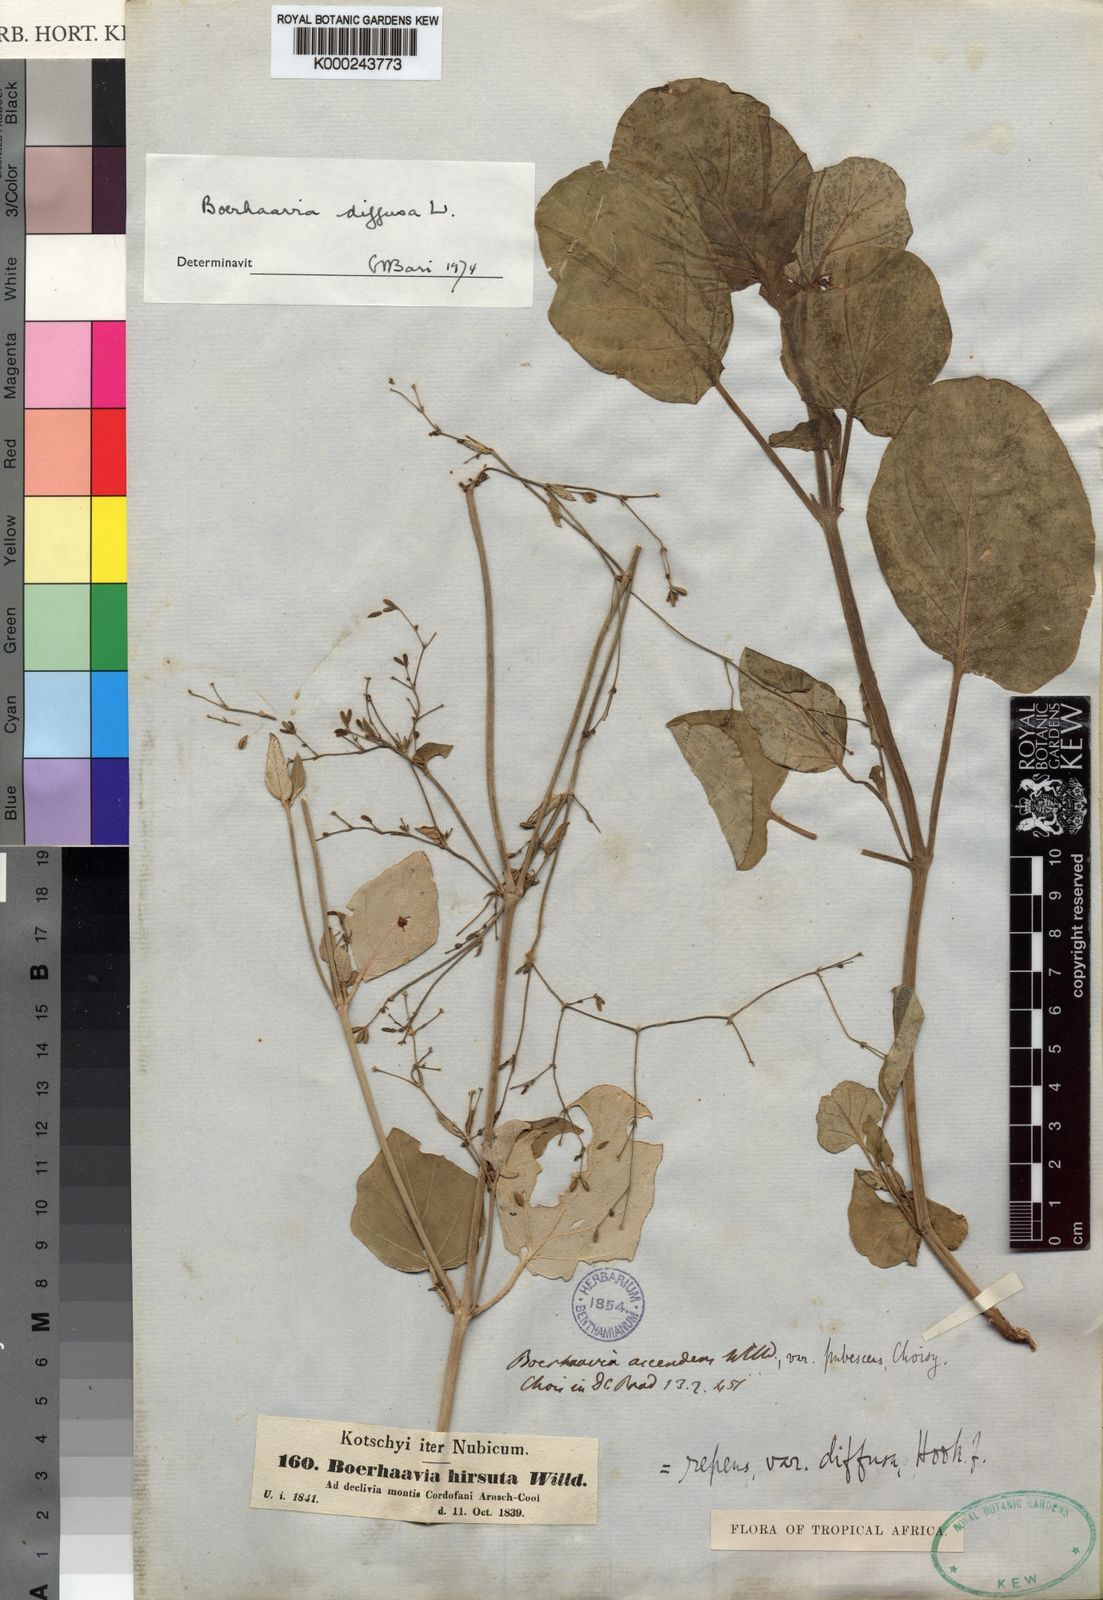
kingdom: Plantae
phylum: Tracheophyta
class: Magnoliopsida
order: Caryophyllales
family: Nyctaginaceae
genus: Boerhavia
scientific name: Boerhavia diffusa
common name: Red spiderling
